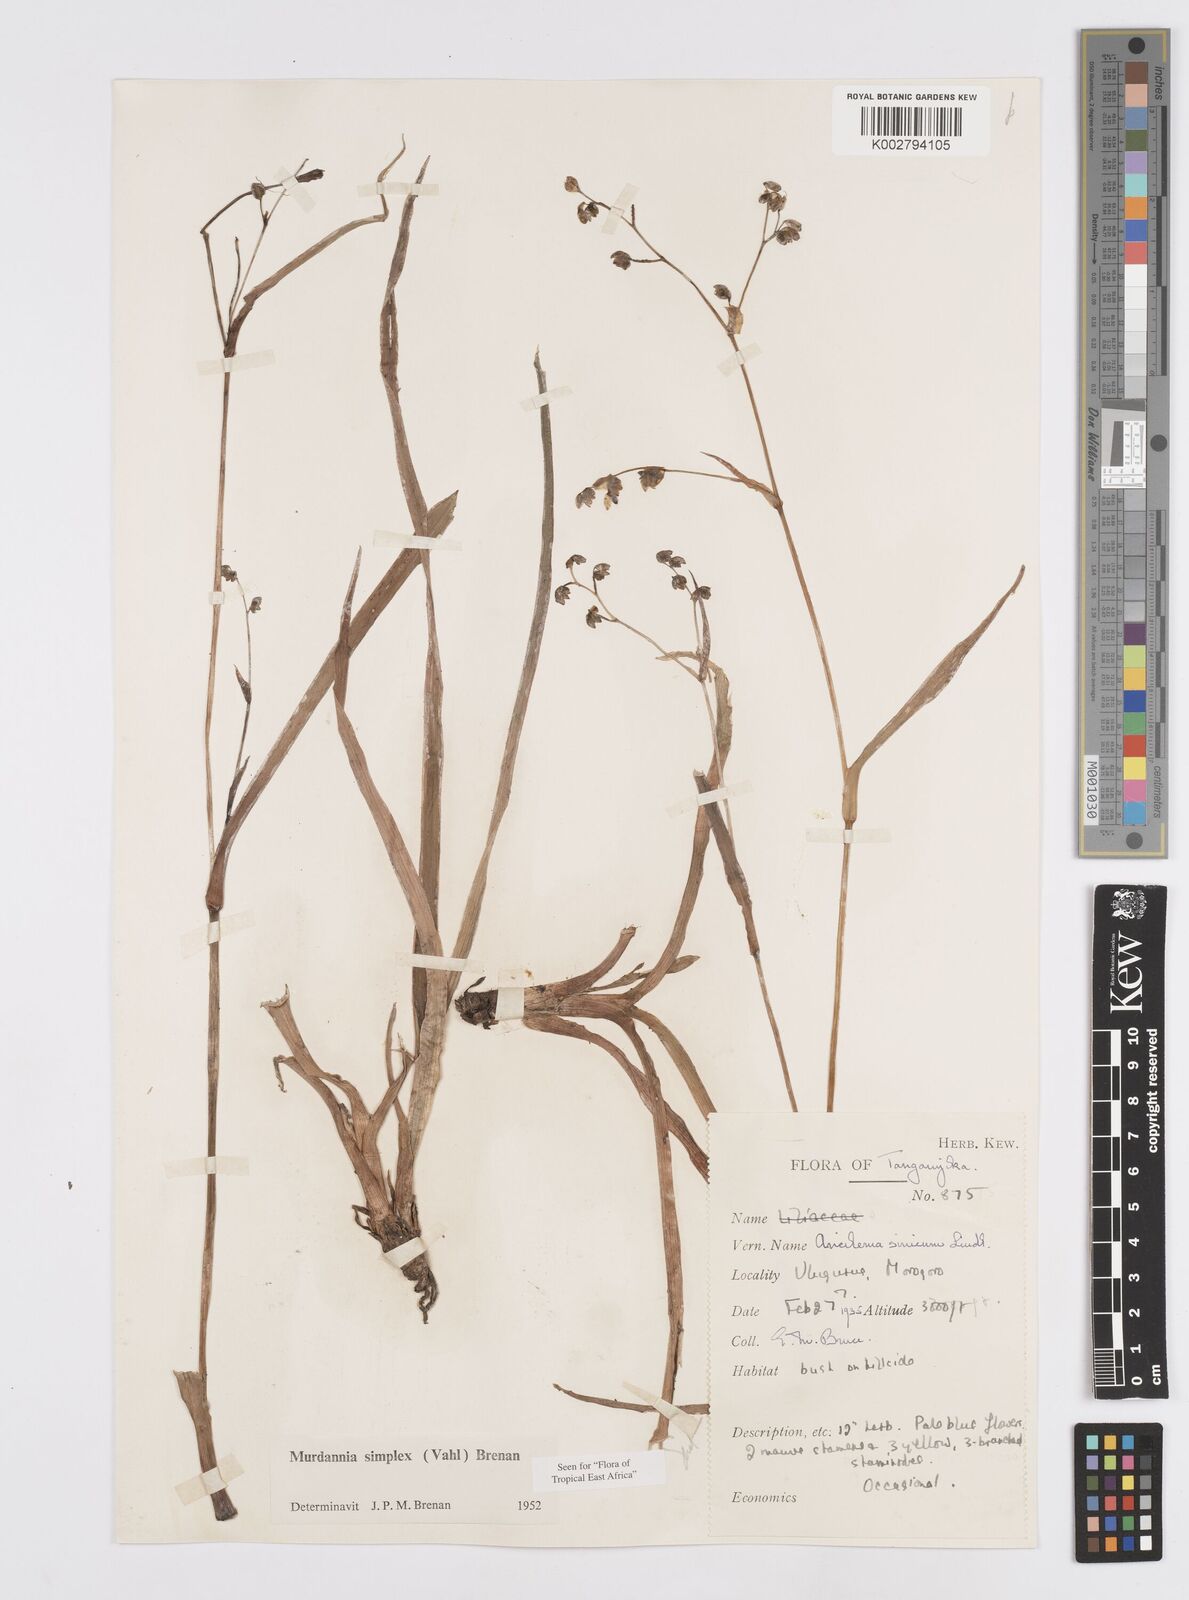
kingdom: Plantae
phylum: Tracheophyta
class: Liliopsida
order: Commelinales
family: Commelinaceae
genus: Murdannia
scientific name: Murdannia simplex
